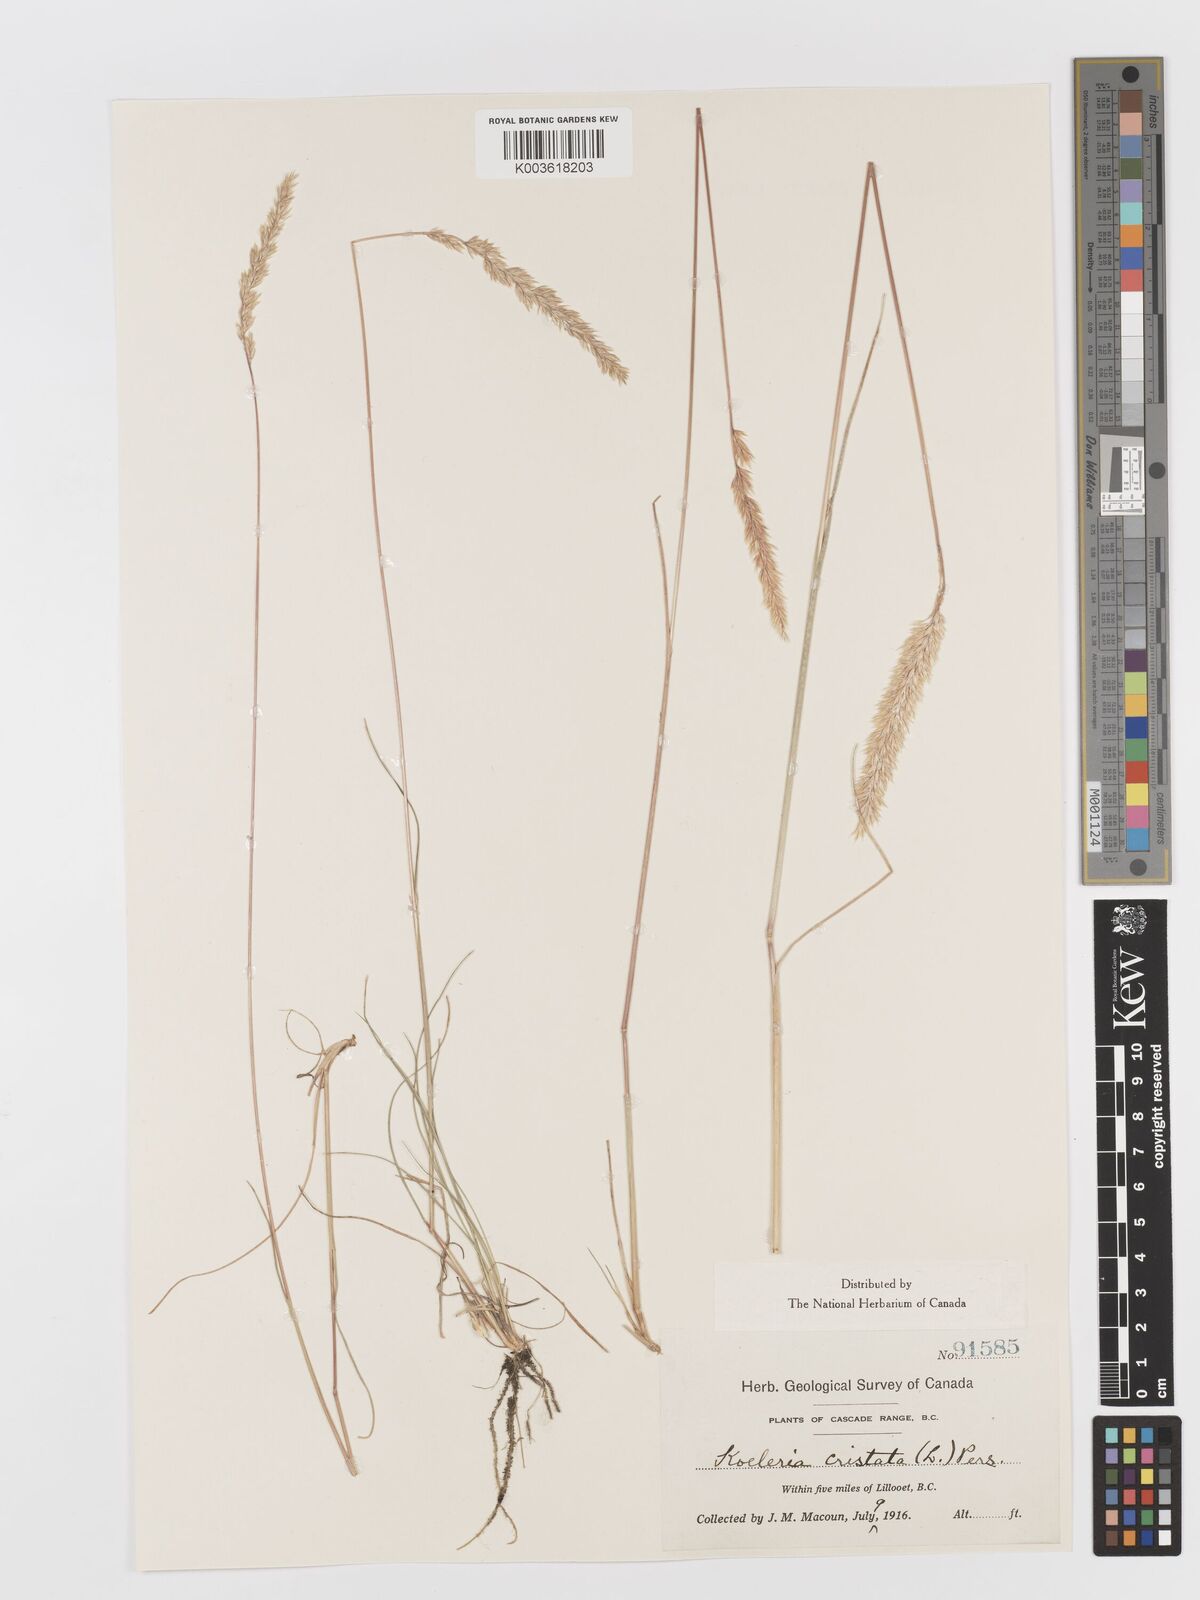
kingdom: Plantae
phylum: Tracheophyta
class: Liliopsida
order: Poales
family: Poaceae
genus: Koeleria
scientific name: Koeleria
